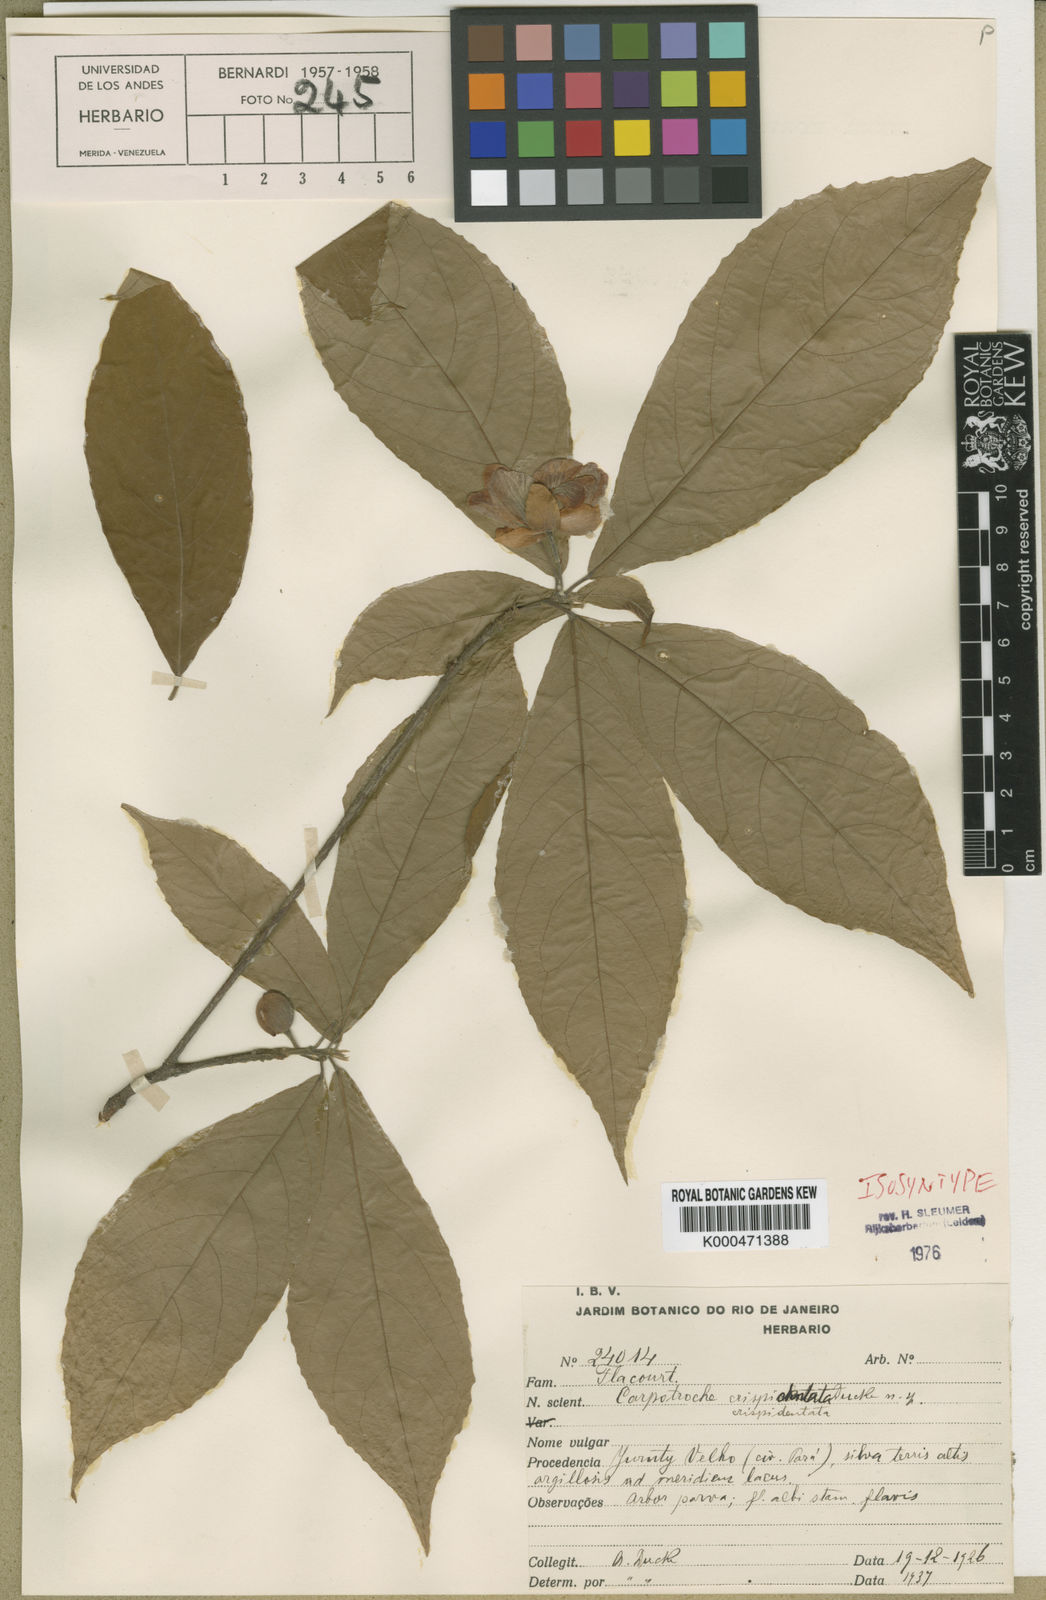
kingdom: Plantae
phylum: Tracheophyta
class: Magnoliopsida
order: Malpighiales
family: Achariaceae
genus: Carpotroche
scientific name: Carpotroche crispidentata
